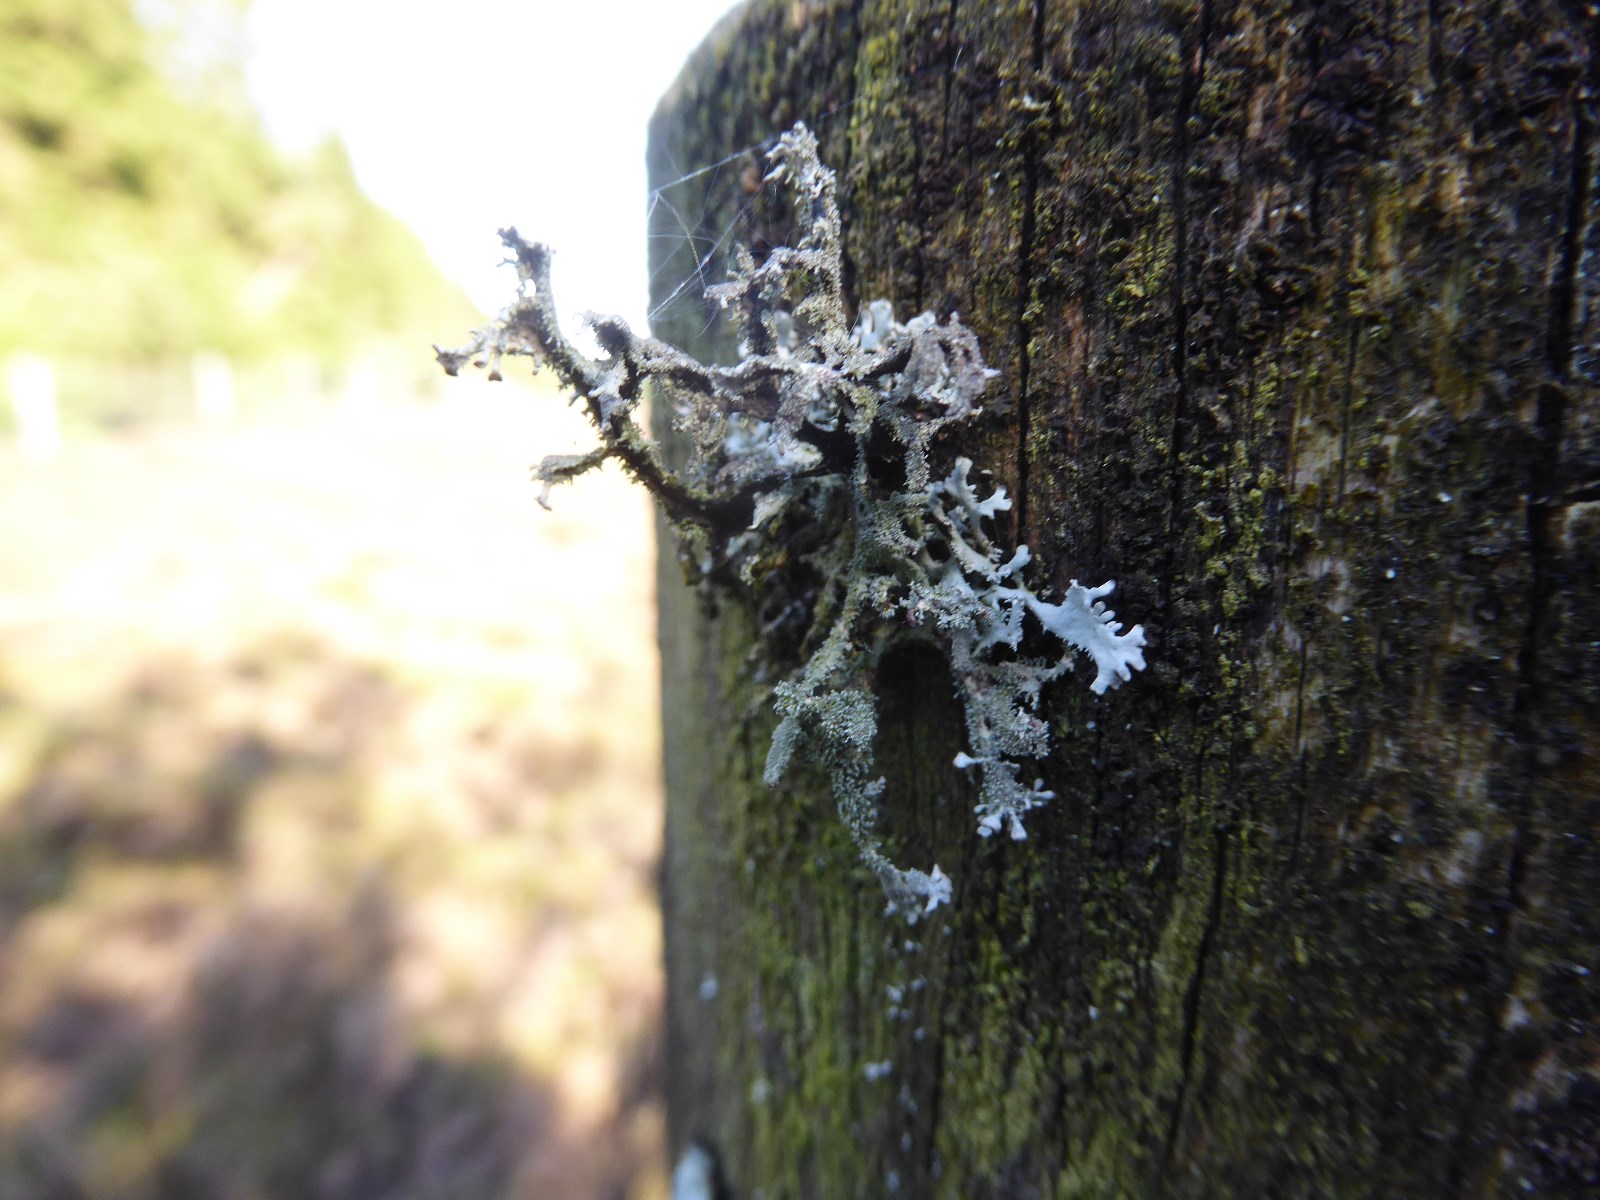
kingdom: Fungi
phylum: Ascomycota
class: Lecanoromycetes
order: Lecanorales
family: Parmeliaceae
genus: Pseudevernia
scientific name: Pseudevernia furfuracea
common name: grå fyrrelav
